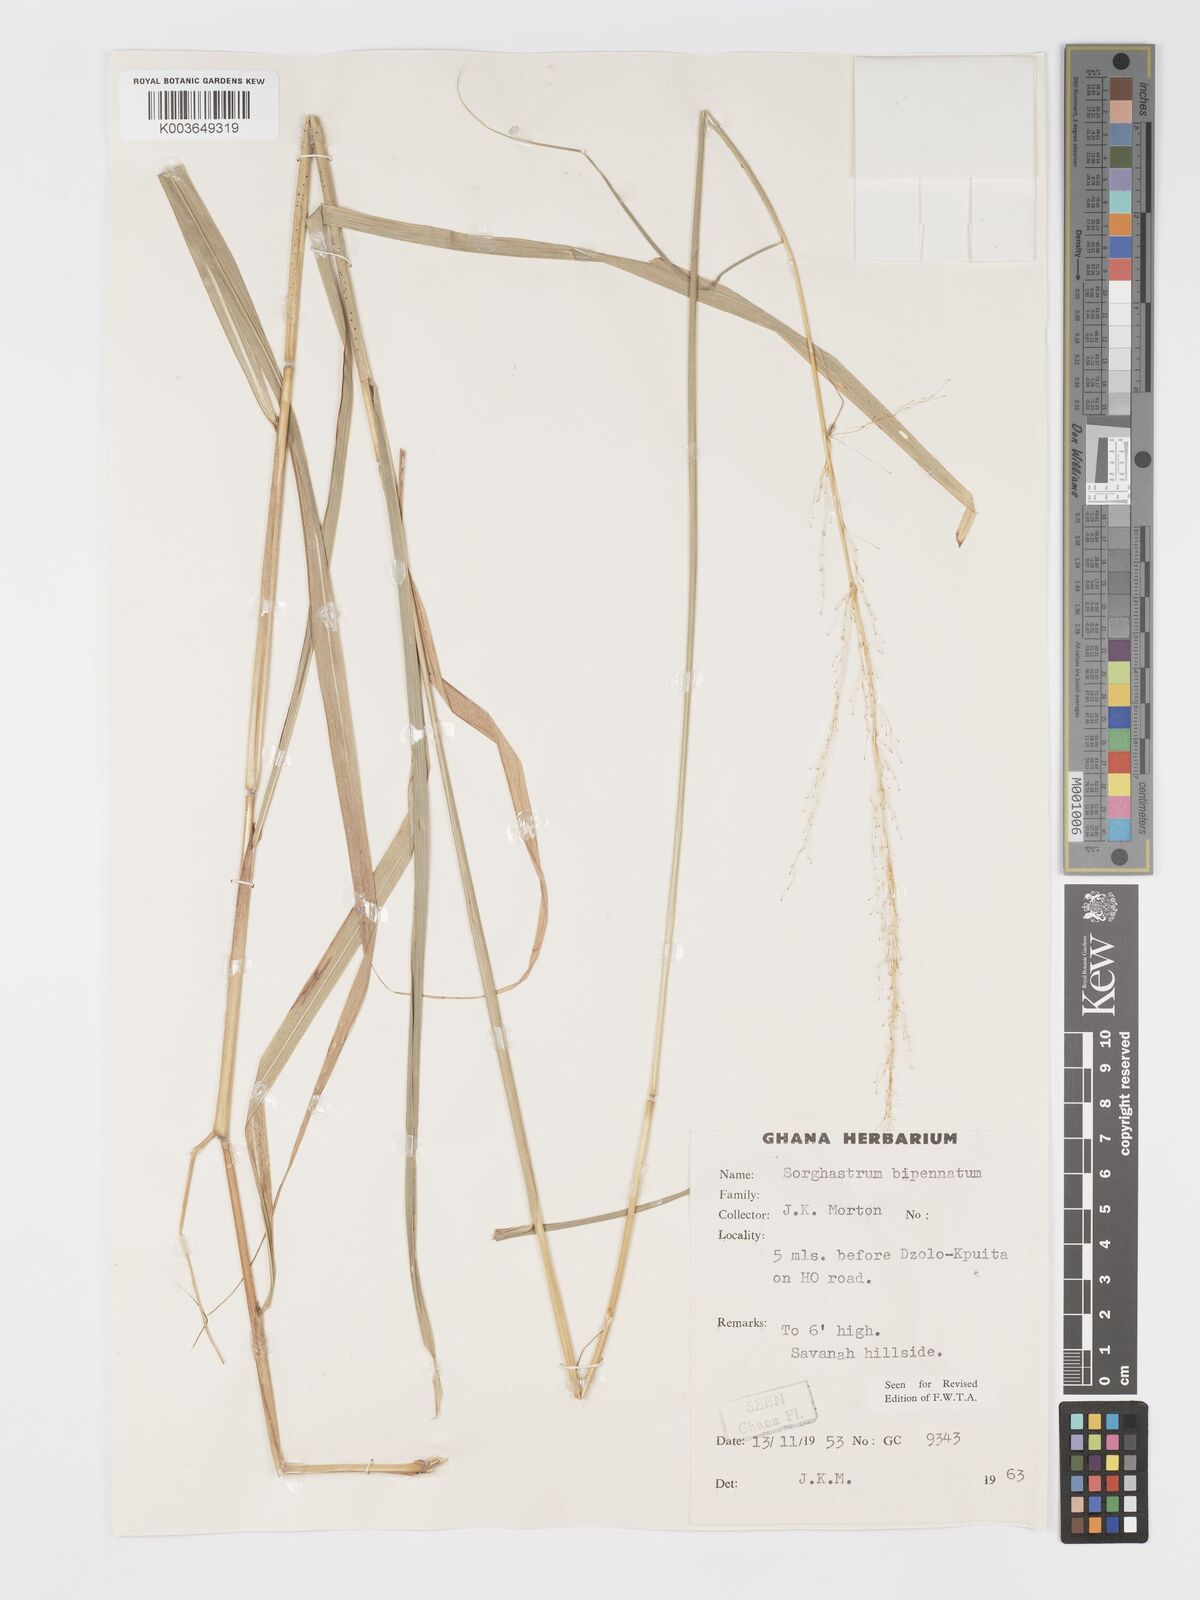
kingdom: Plantae
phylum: Tracheophyta
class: Liliopsida
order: Poales
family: Poaceae
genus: Sorghastrum
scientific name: Sorghastrum incompletum
